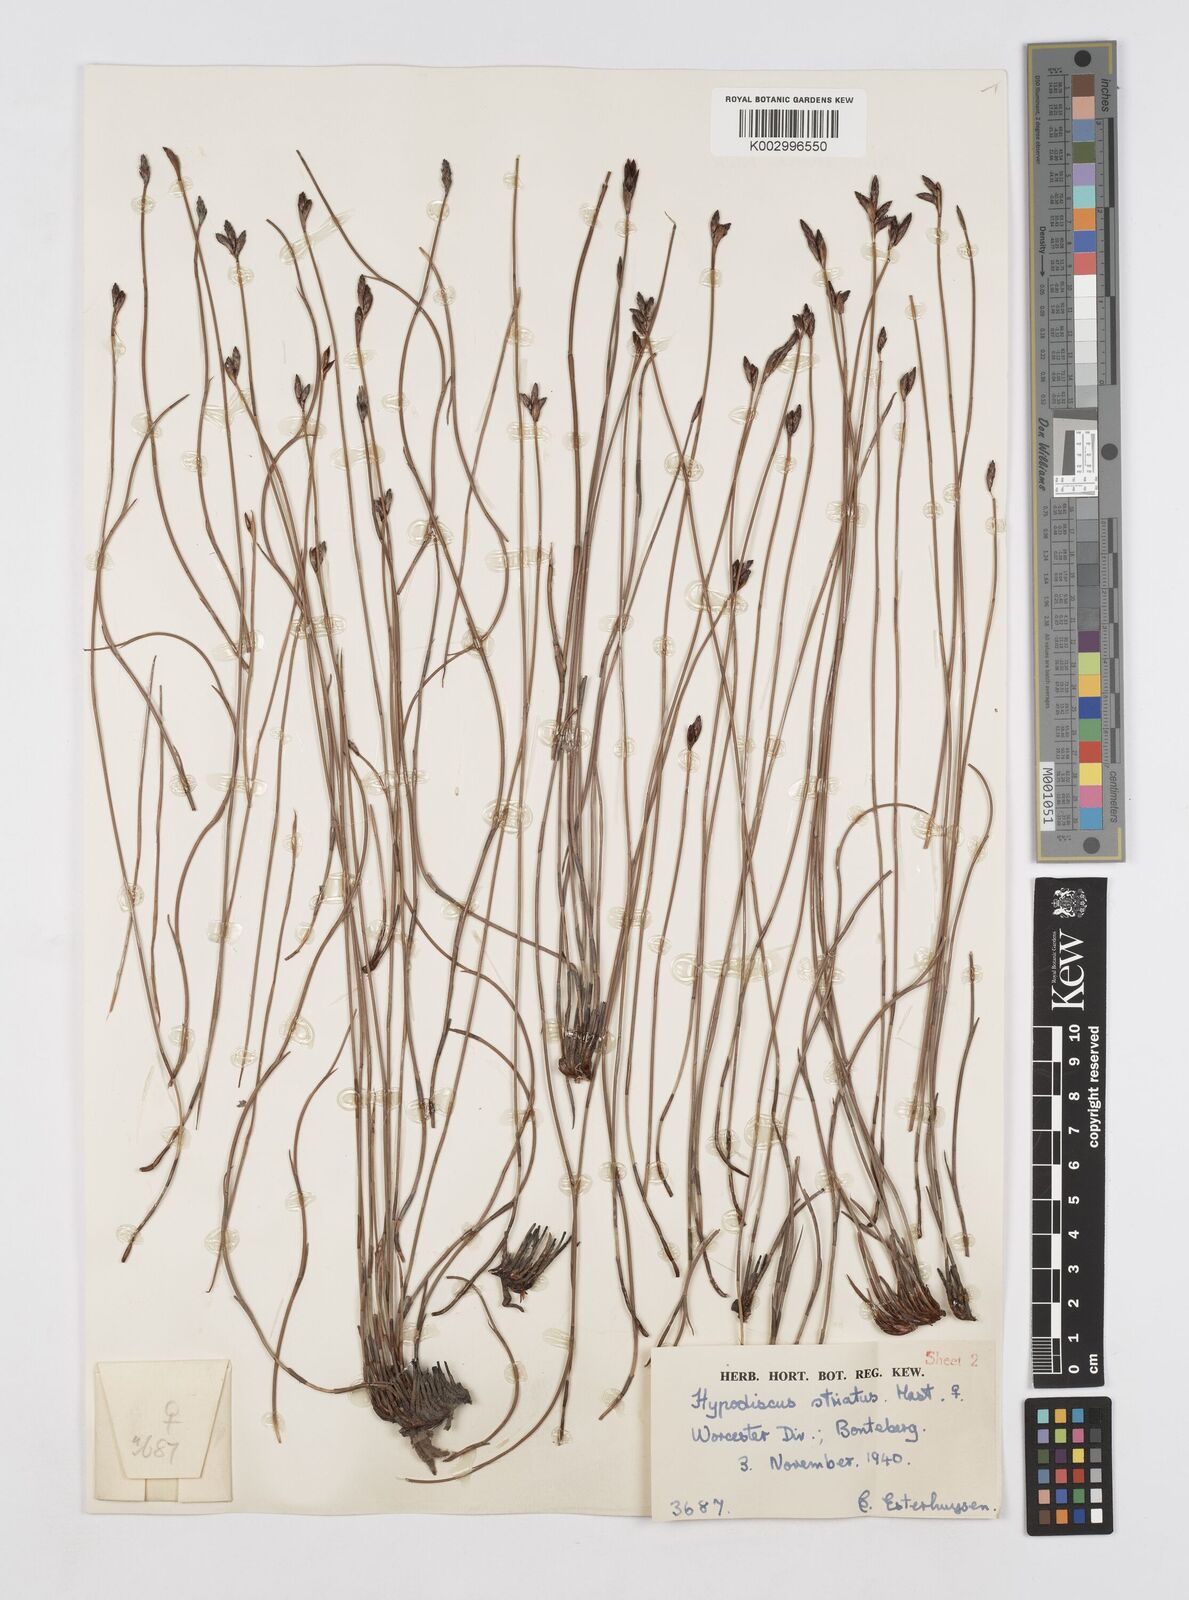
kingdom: Plantae
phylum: Tracheophyta
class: Liliopsida
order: Poales
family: Restionaceae
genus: Hypodiscus
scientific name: Hypodiscus striatus
